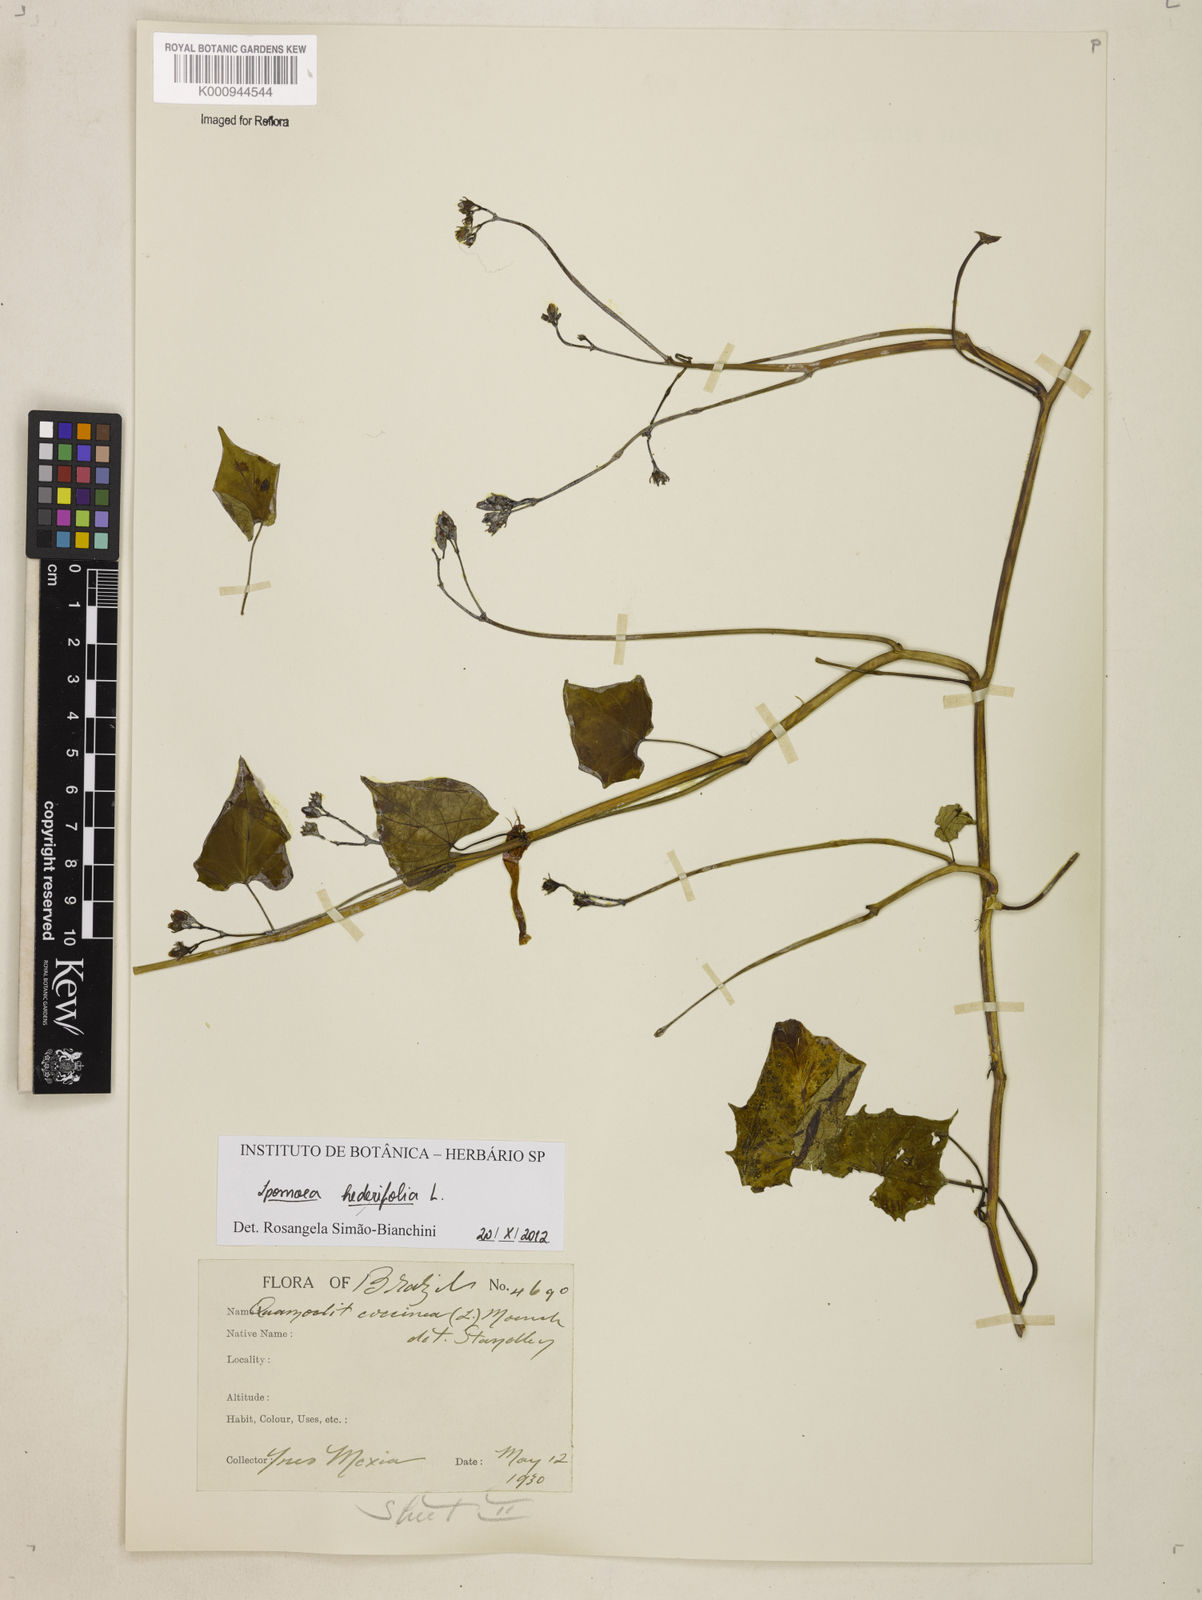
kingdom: Plantae
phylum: Tracheophyta
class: Magnoliopsida
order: Solanales
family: Convolvulaceae
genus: Ipomoea
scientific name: Ipomoea hederifolia
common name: Ivy-leaf morning-glory
